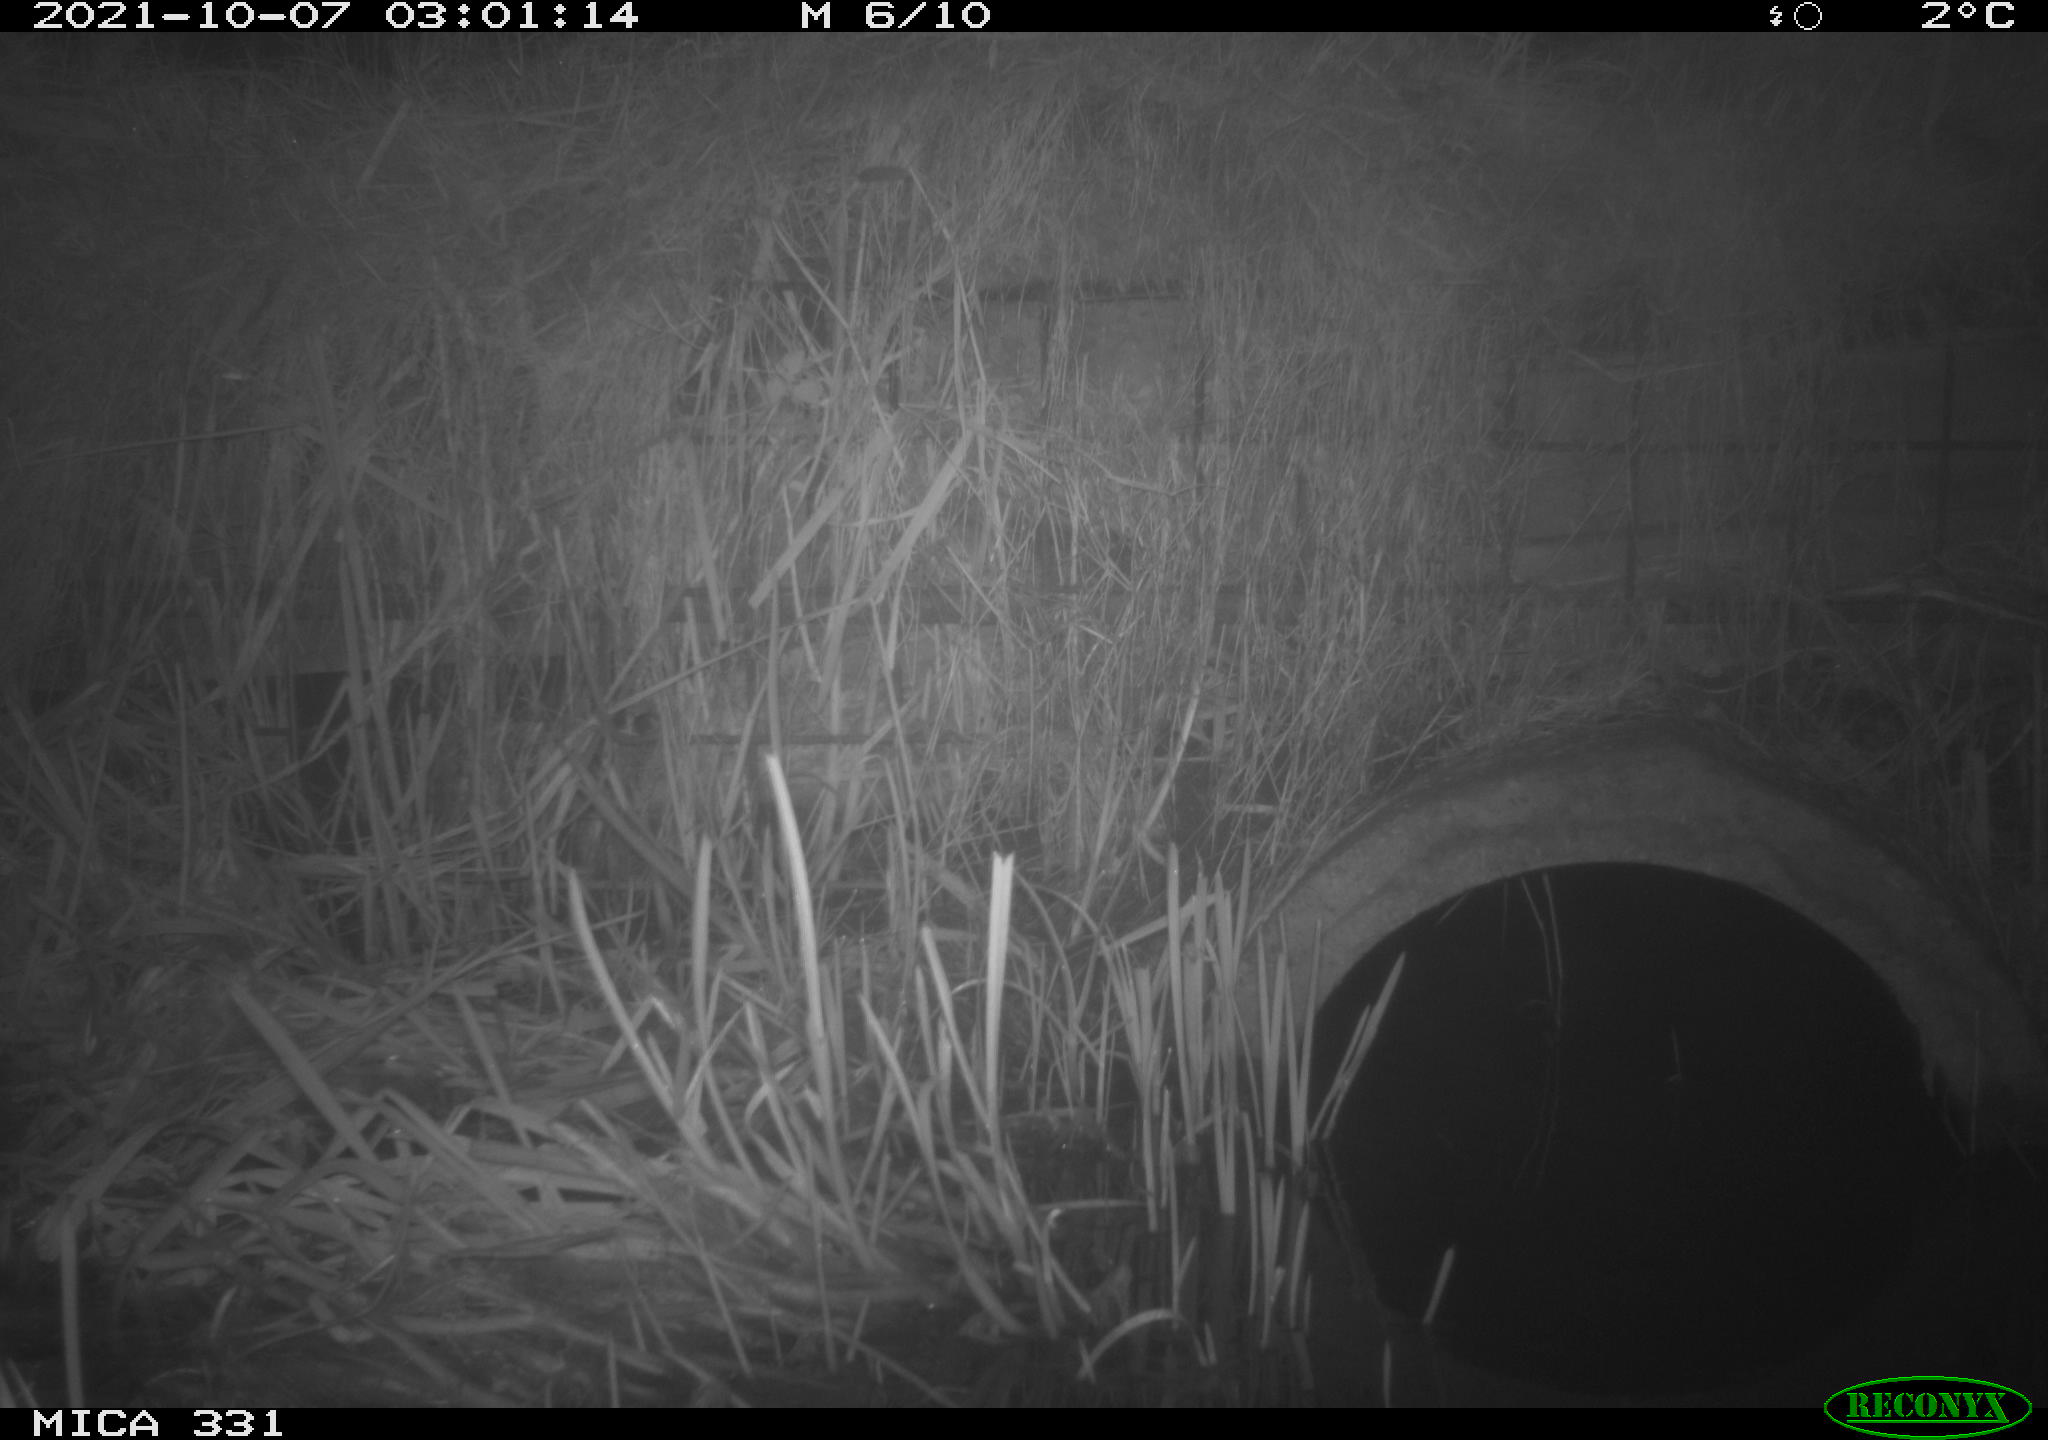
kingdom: Animalia
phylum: Chordata
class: Mammalia
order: Rodentia
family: Muridae
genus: Rattus
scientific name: Rattus norvegicus
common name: Brown rat
